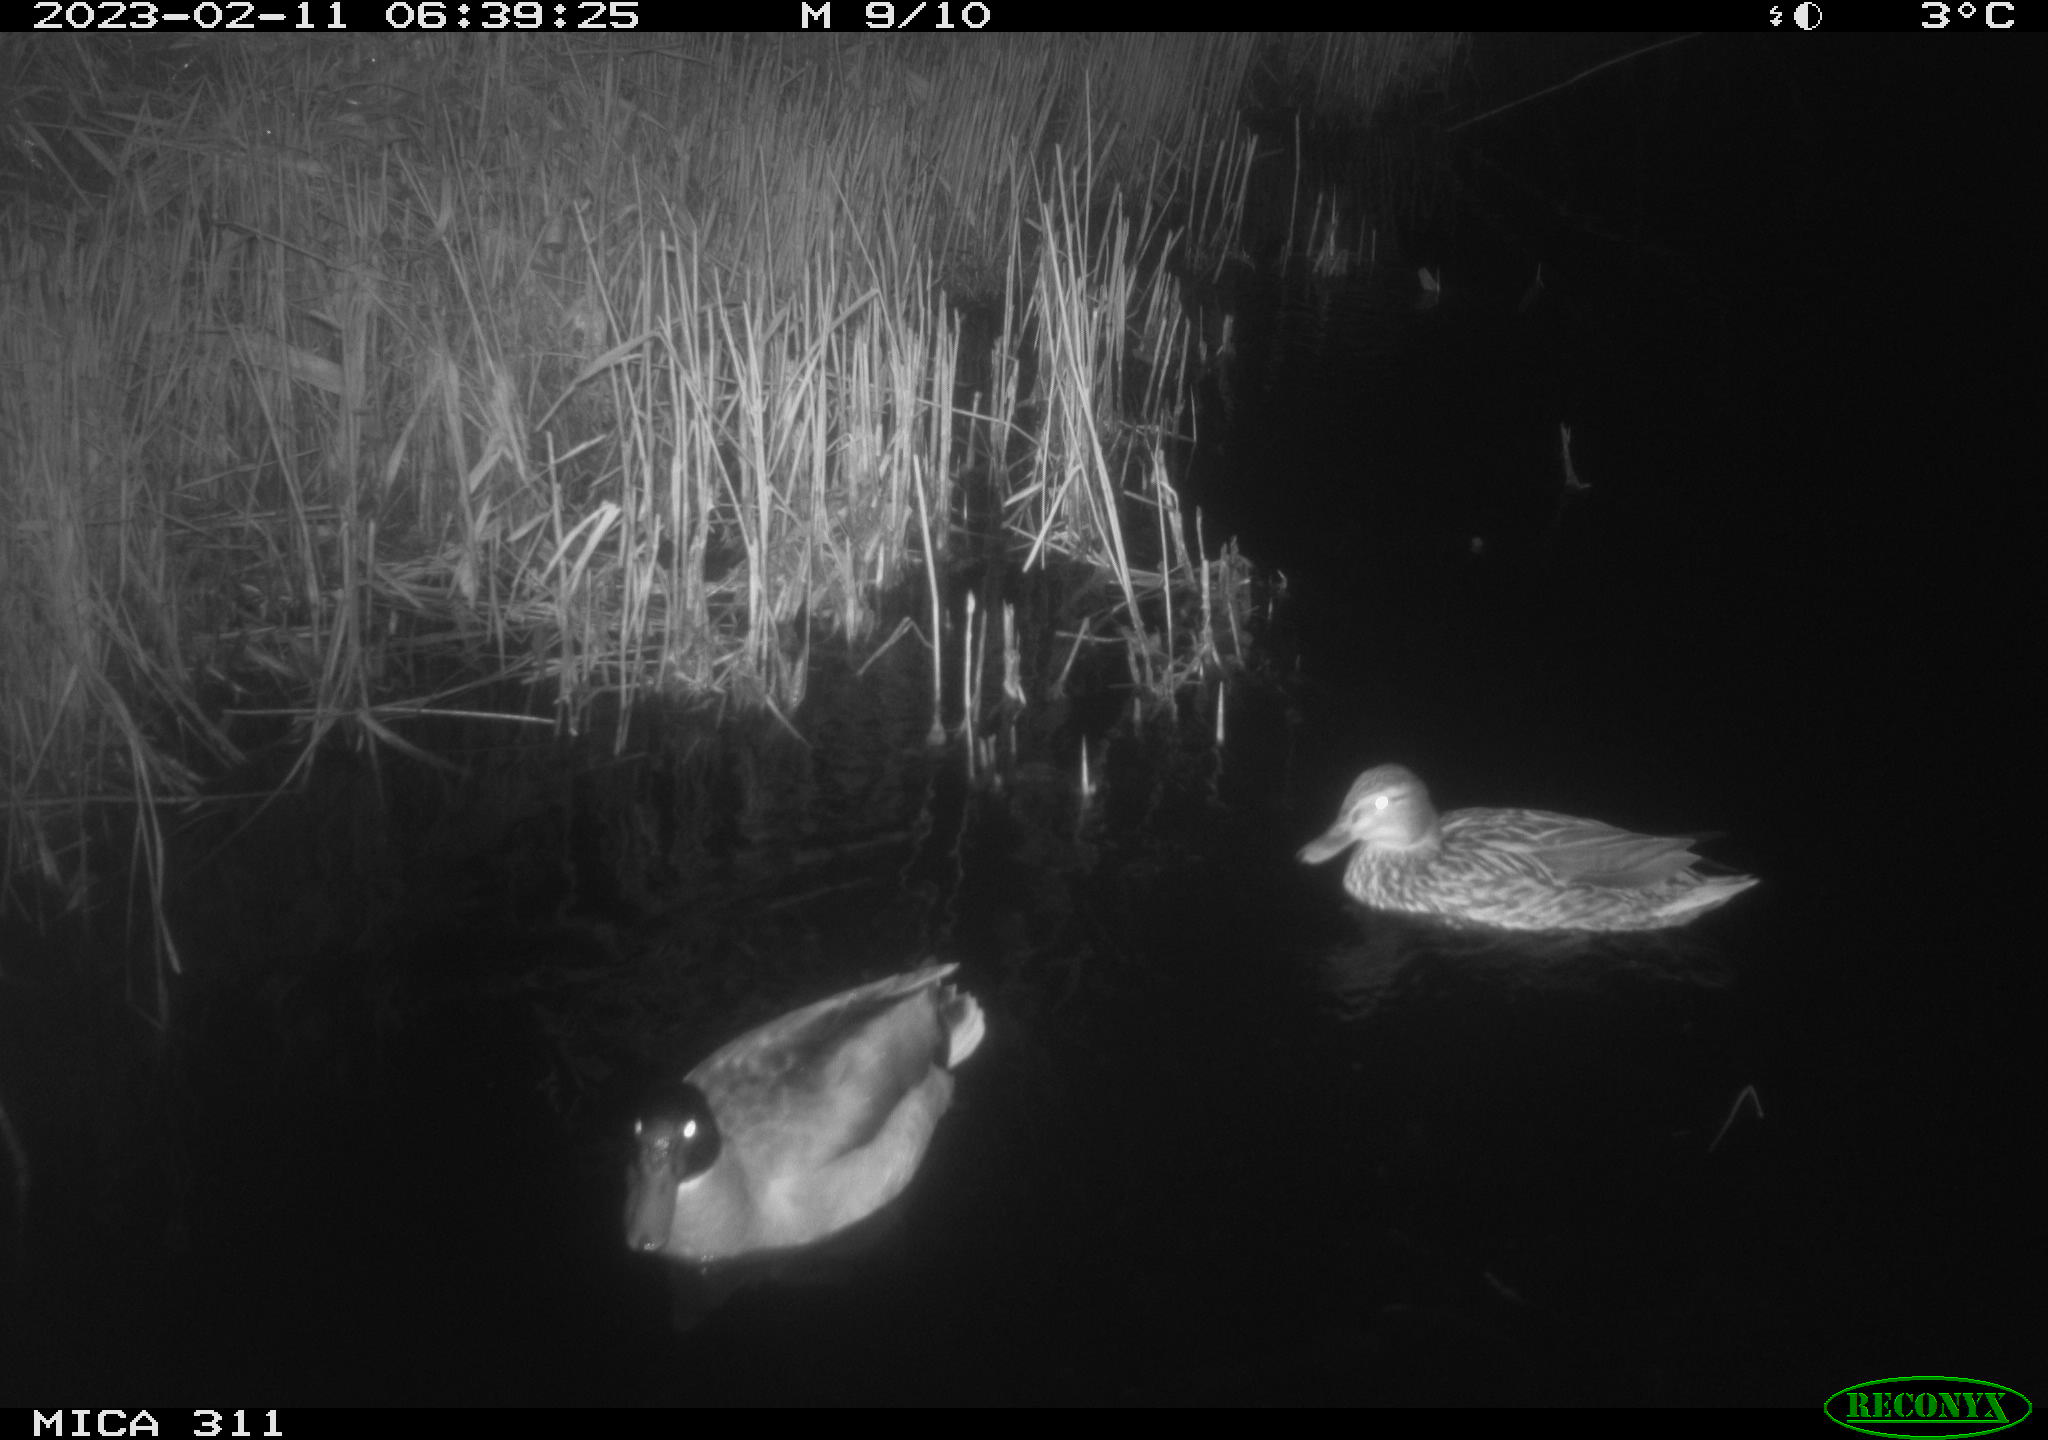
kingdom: Animalia
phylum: Chordata
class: Aves
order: Anseriformes
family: Anatidae
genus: Anas
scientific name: Anas
